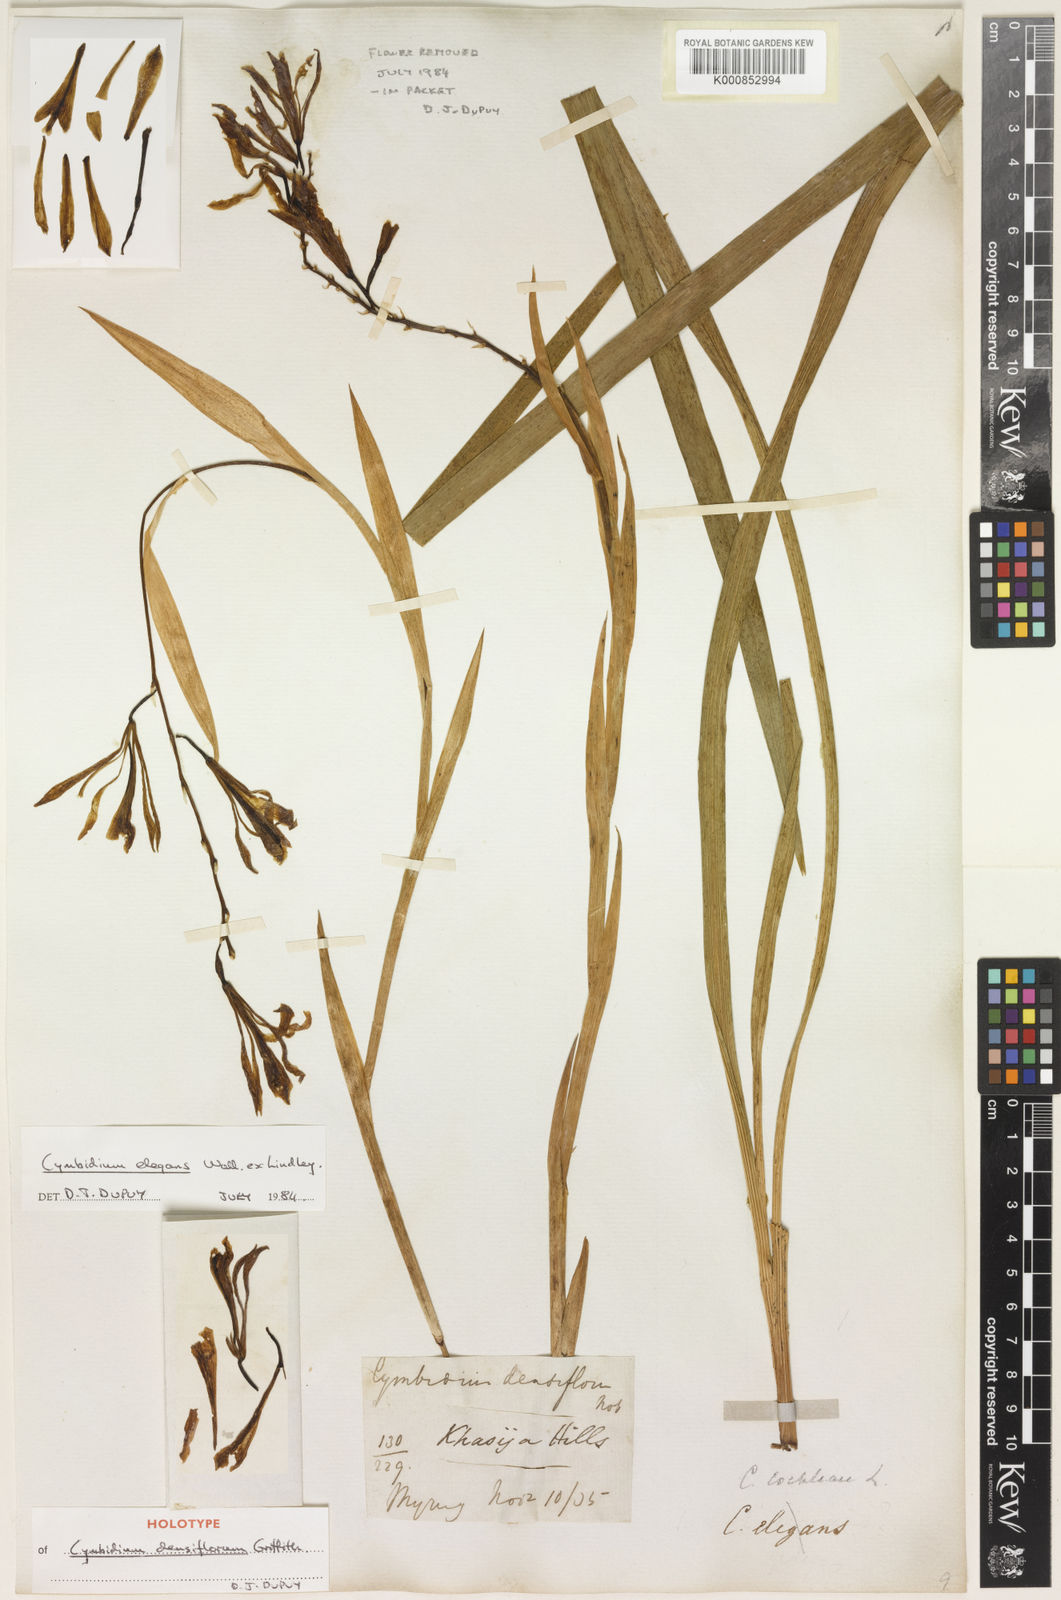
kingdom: Plantae
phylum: Tracheophyta
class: Liliopsida
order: Asparagales
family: Orchidaceae
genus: Cymbidium
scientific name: Cymbidium elegans
